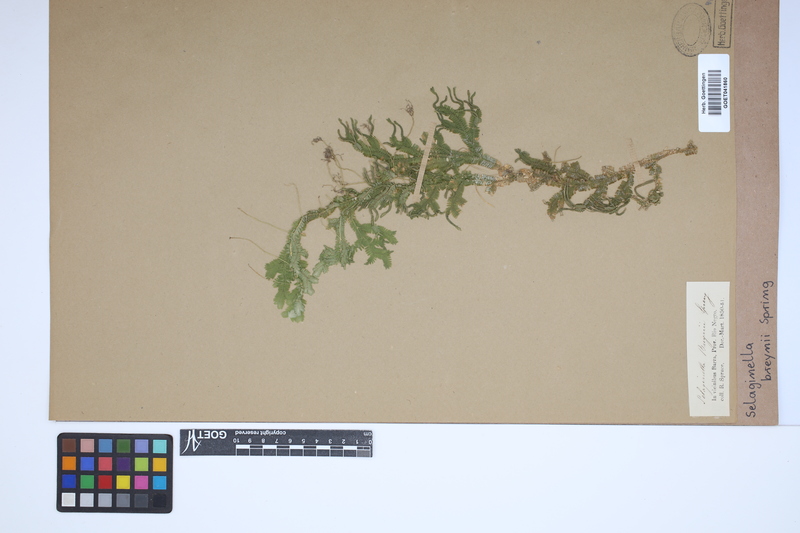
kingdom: Plantae
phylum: Tracheophyta
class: Lycopodiopsida
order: Selaginellales
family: Selaginellaceae
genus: Selaginella
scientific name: Selaginella breynii
